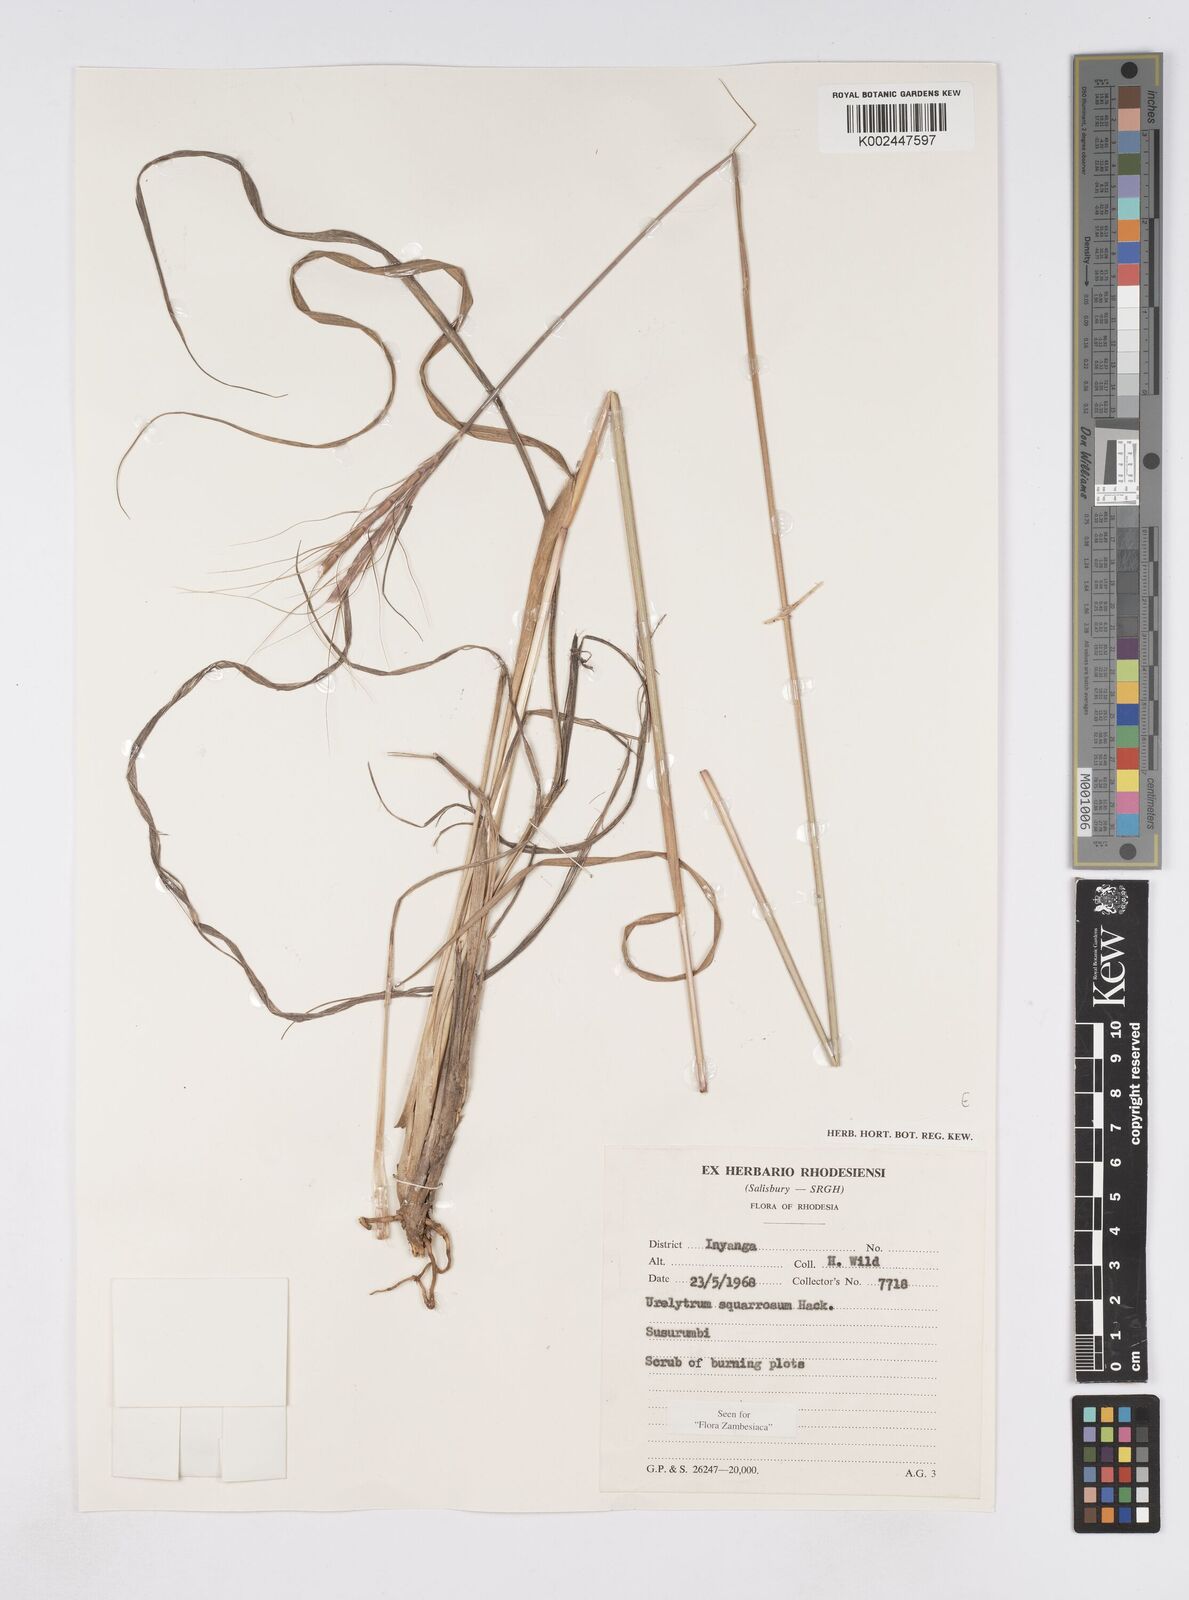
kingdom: Plantae
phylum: Tracheophyta
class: Liliopsida
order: Poales
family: Poaceae
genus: Urelytrum
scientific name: Urelytrum agropyroides
